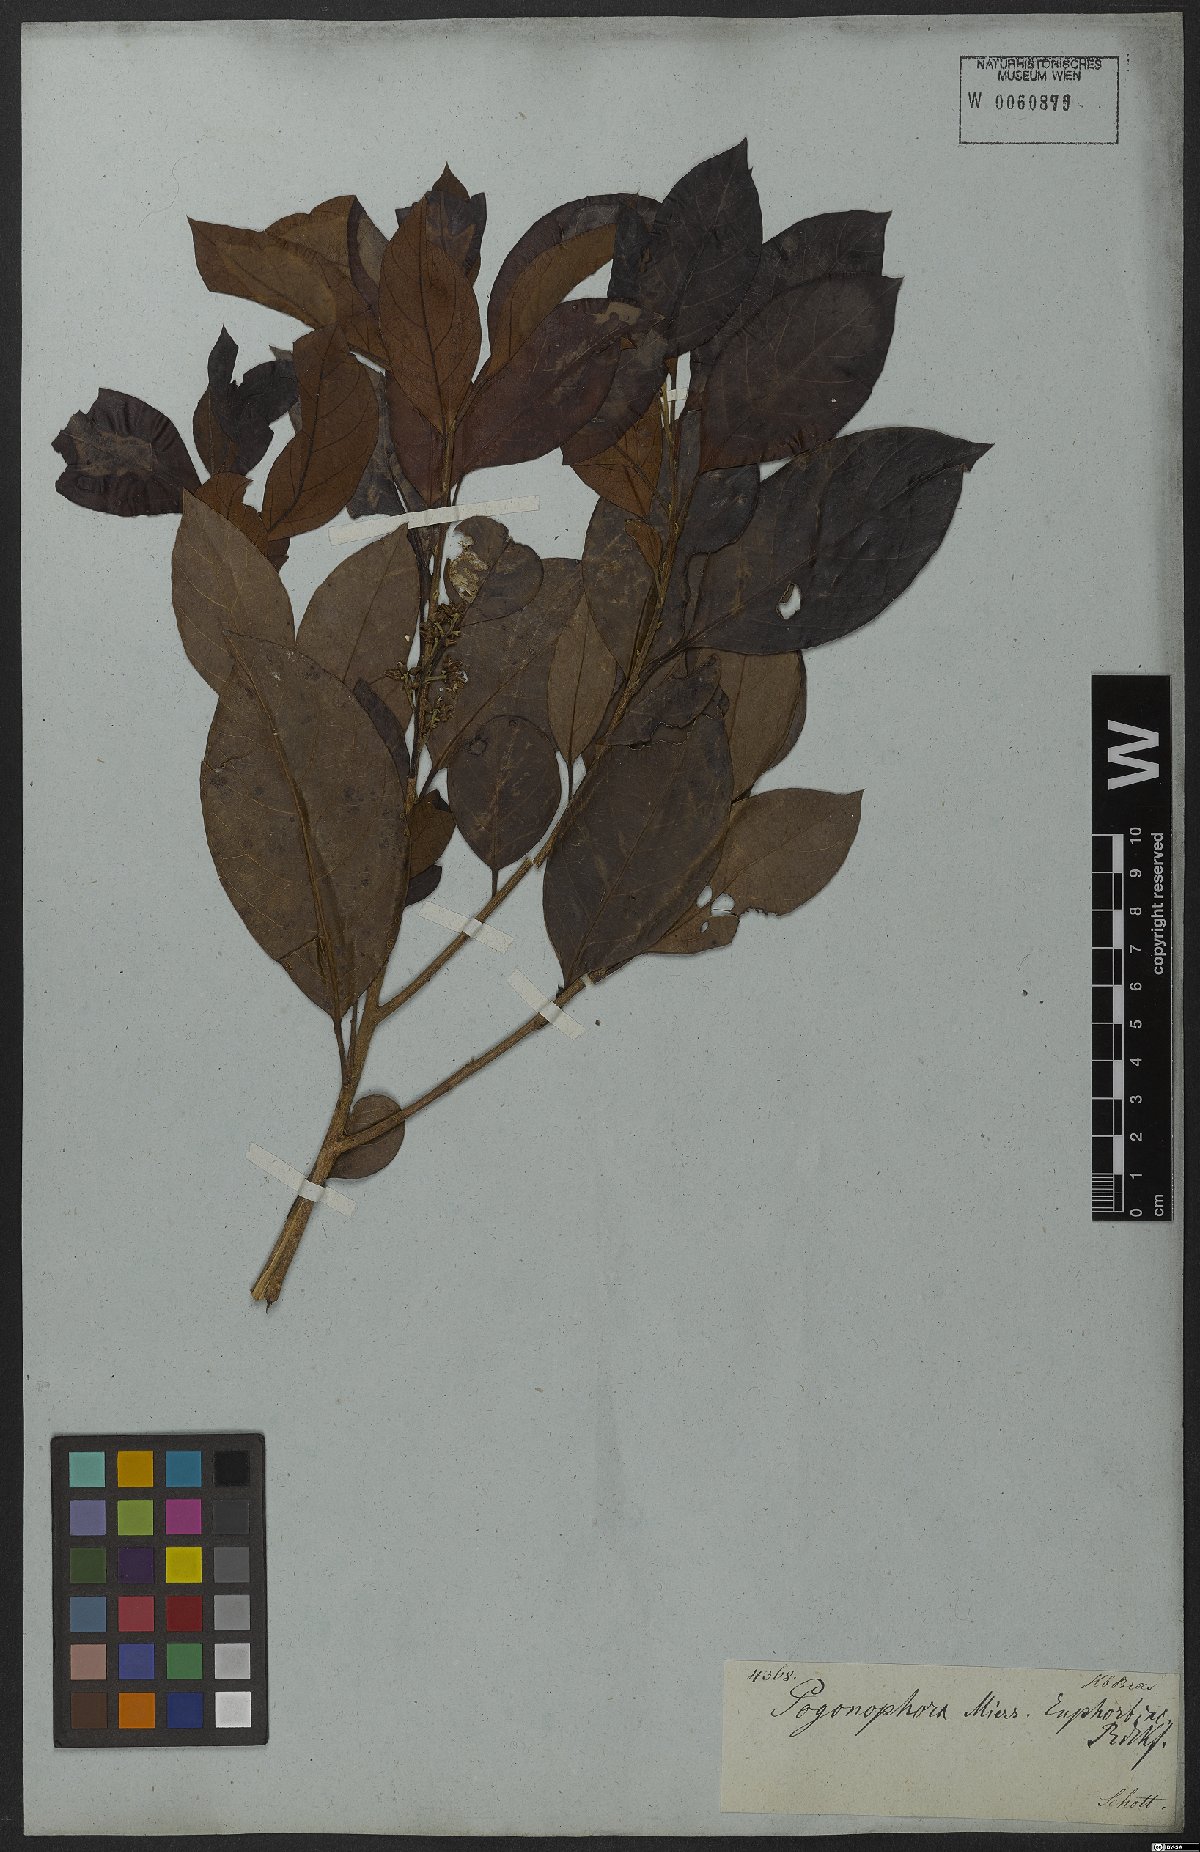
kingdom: Plantae
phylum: Tracheophyta
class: Magnoliopsida
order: Malpighiales
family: Peraceae
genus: Pogonophora
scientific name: Pogonophora schomburgkiana
